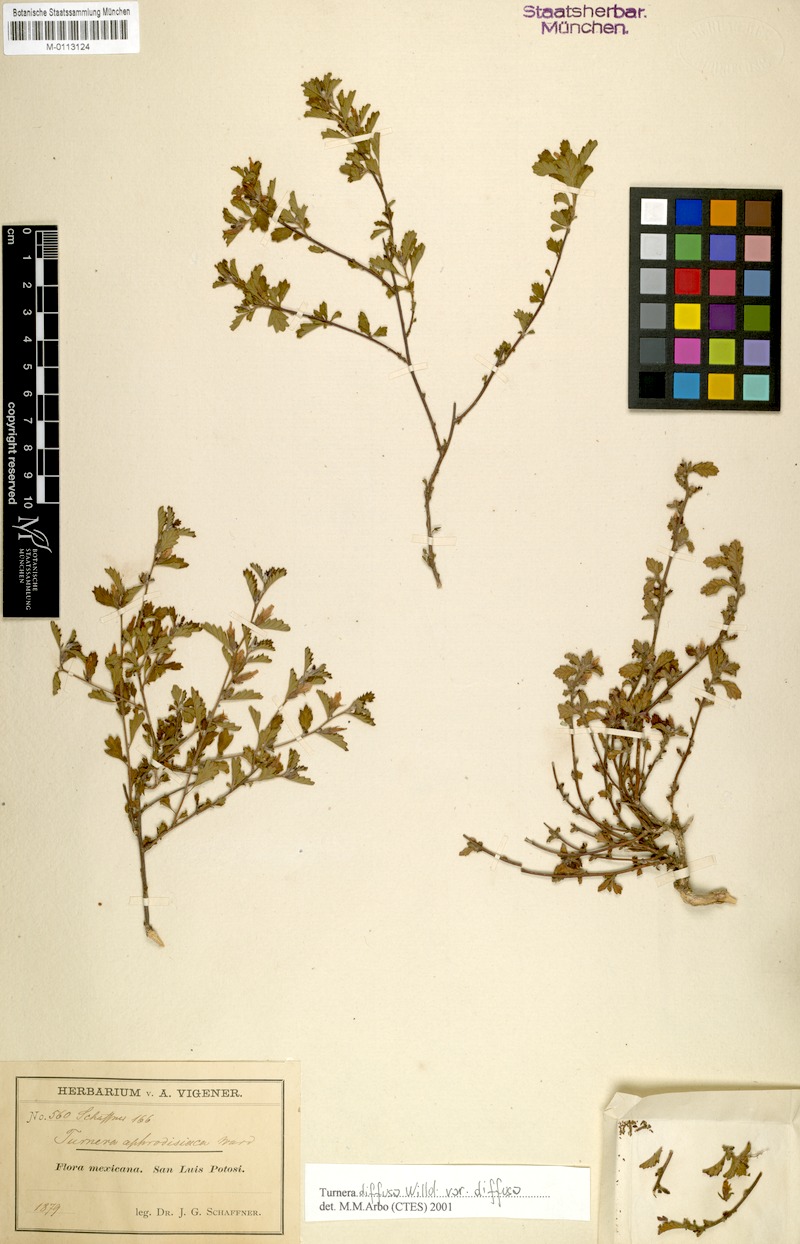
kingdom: Plantae
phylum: Tracheophyta
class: Magnoliopsida
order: Malpighiales
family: Turneraceae
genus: Turnera
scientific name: Turnera diffusa
